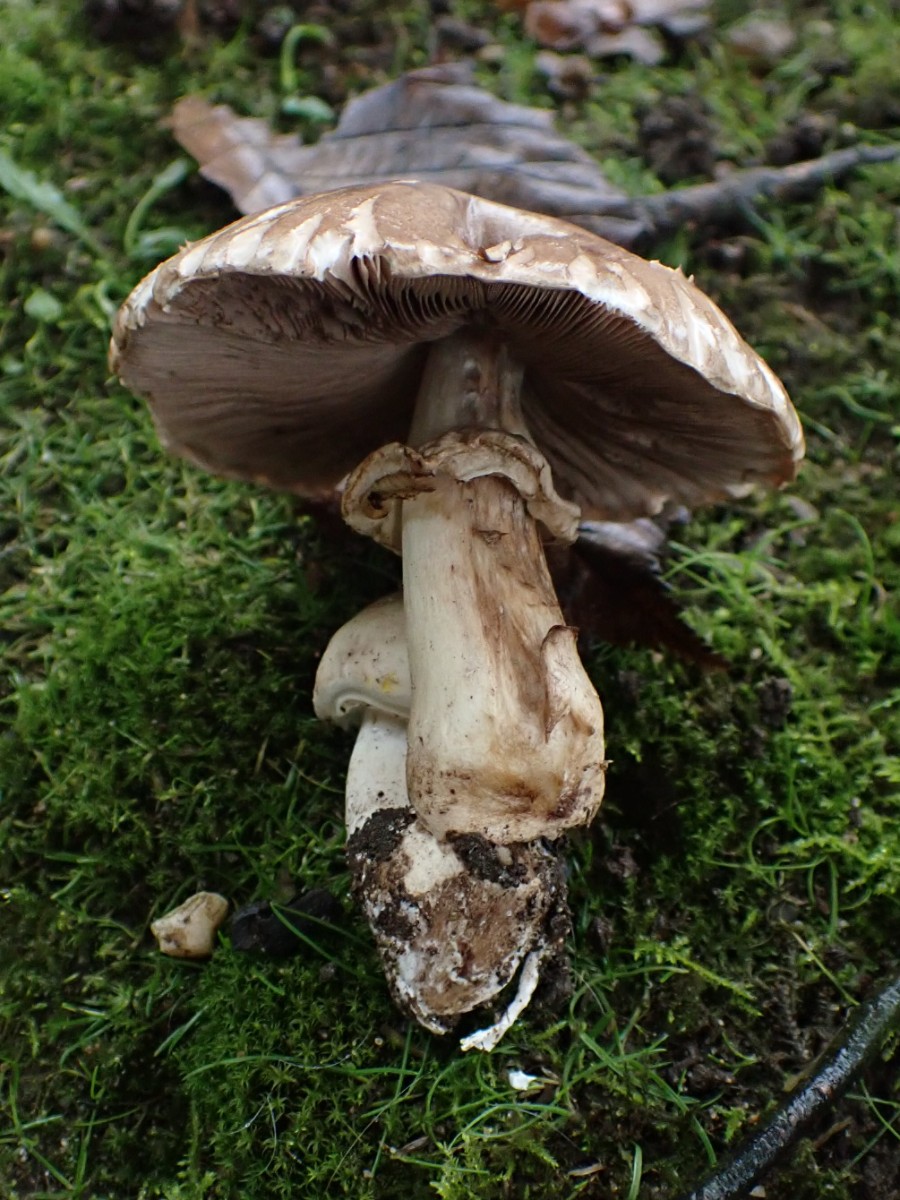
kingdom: Fungi
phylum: Basidiomycota
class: Agaricomycetes
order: Agaricales
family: Agaricaceae
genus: Agaricus
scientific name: Agaricus xanthodermus
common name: karbol-champignon
